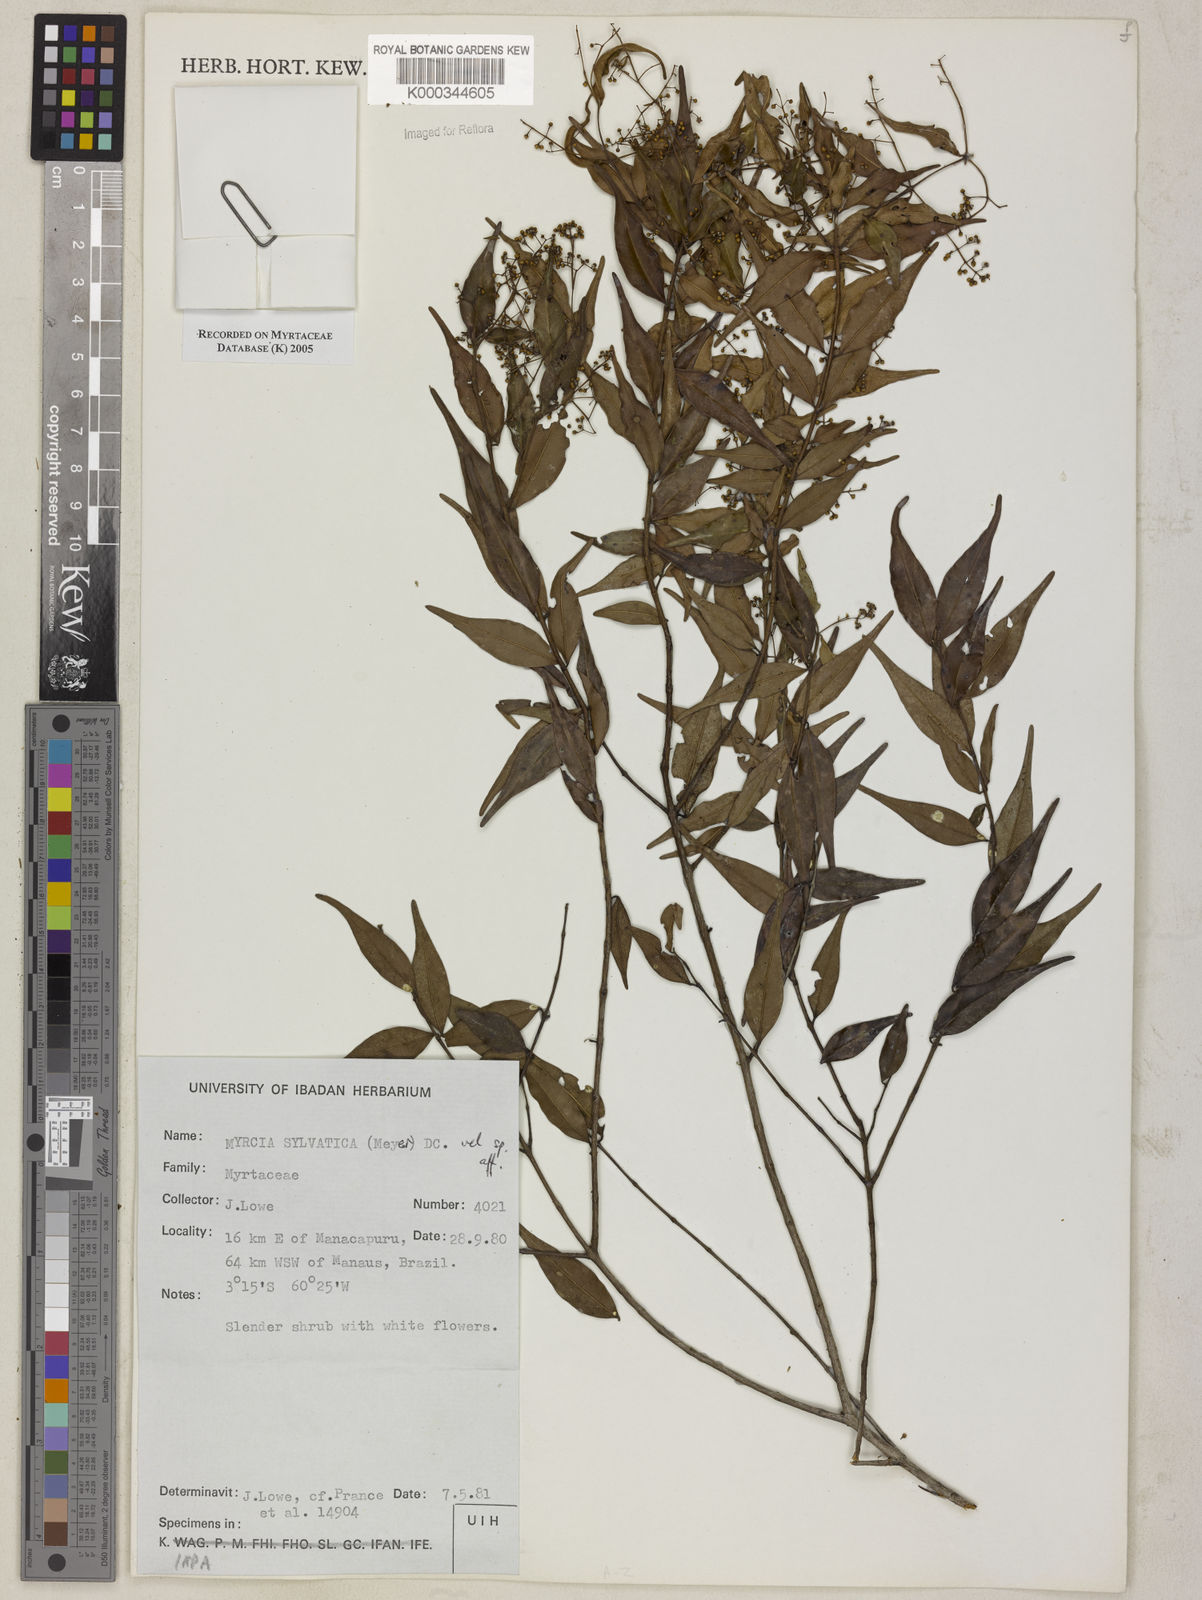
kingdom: Plantae
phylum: Tracheophyta
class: Magnoliopsida
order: Myrtales
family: Myrtaceae
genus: Myrcia
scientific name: Myrcia sylvatica
